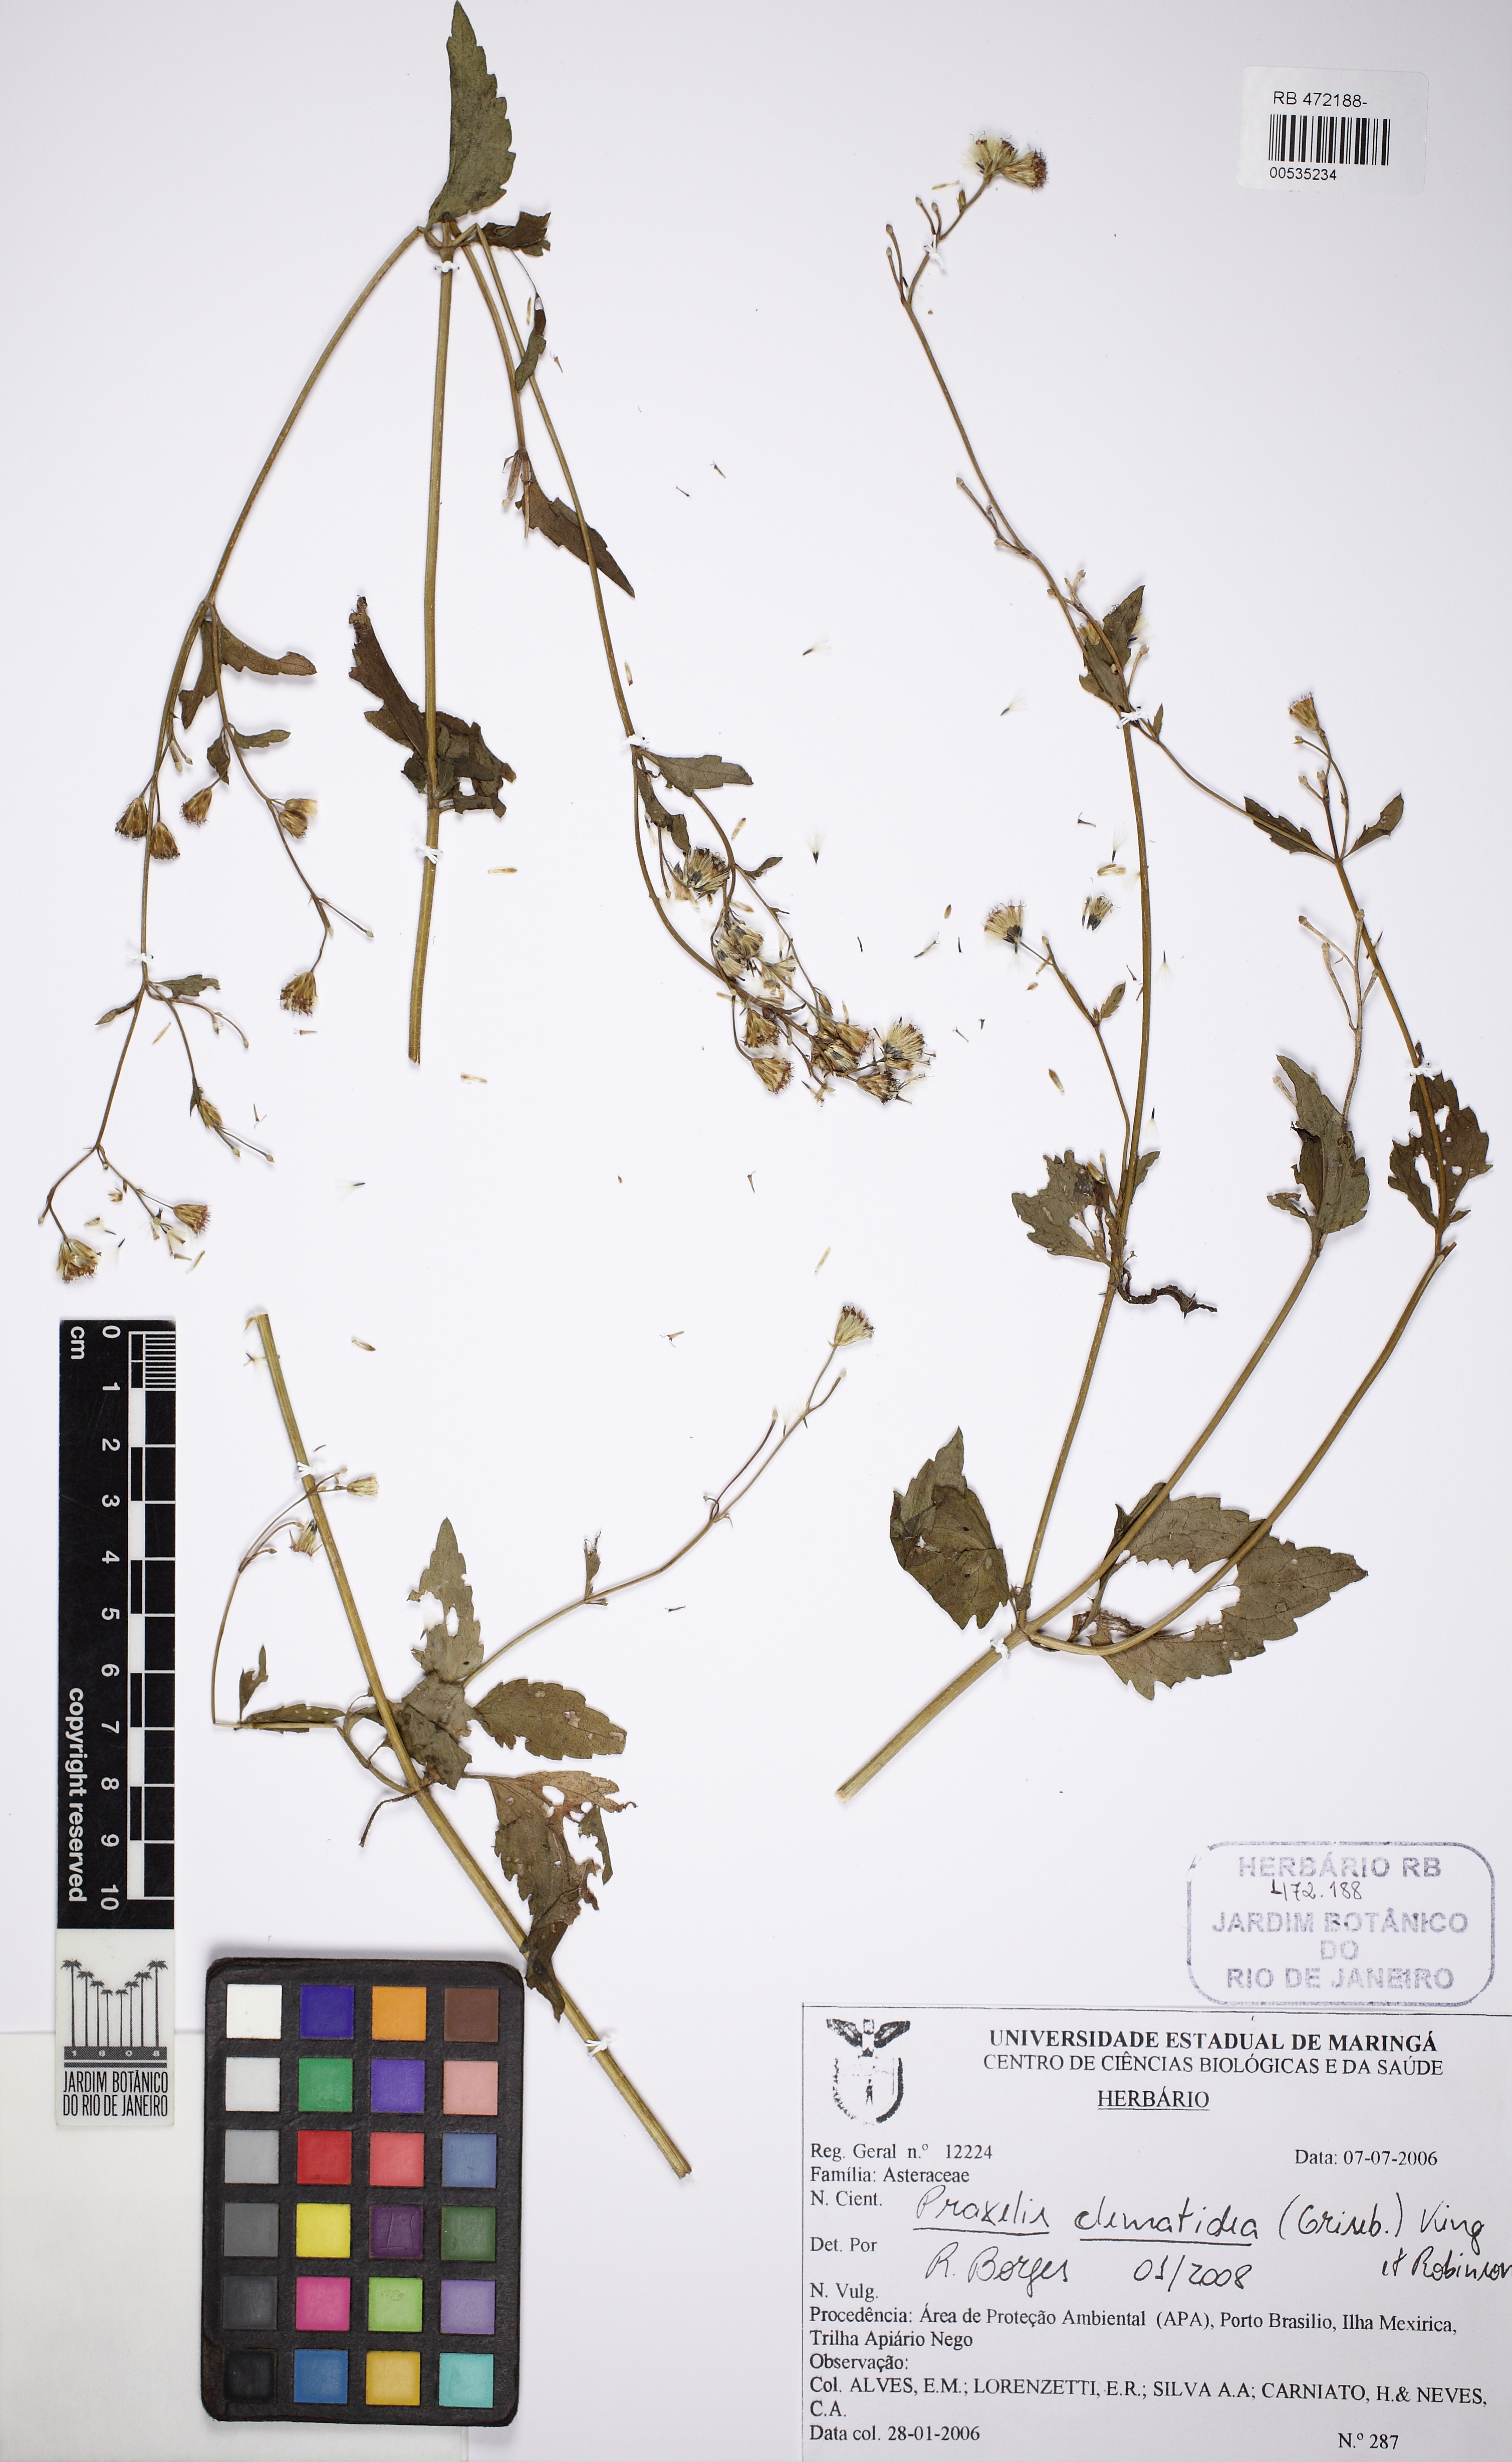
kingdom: Plantae
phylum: Tracheophyta
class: Magnoliopsida
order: Asterales
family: Asteraceae
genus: Praxelis
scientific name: Praxelis diffusa
